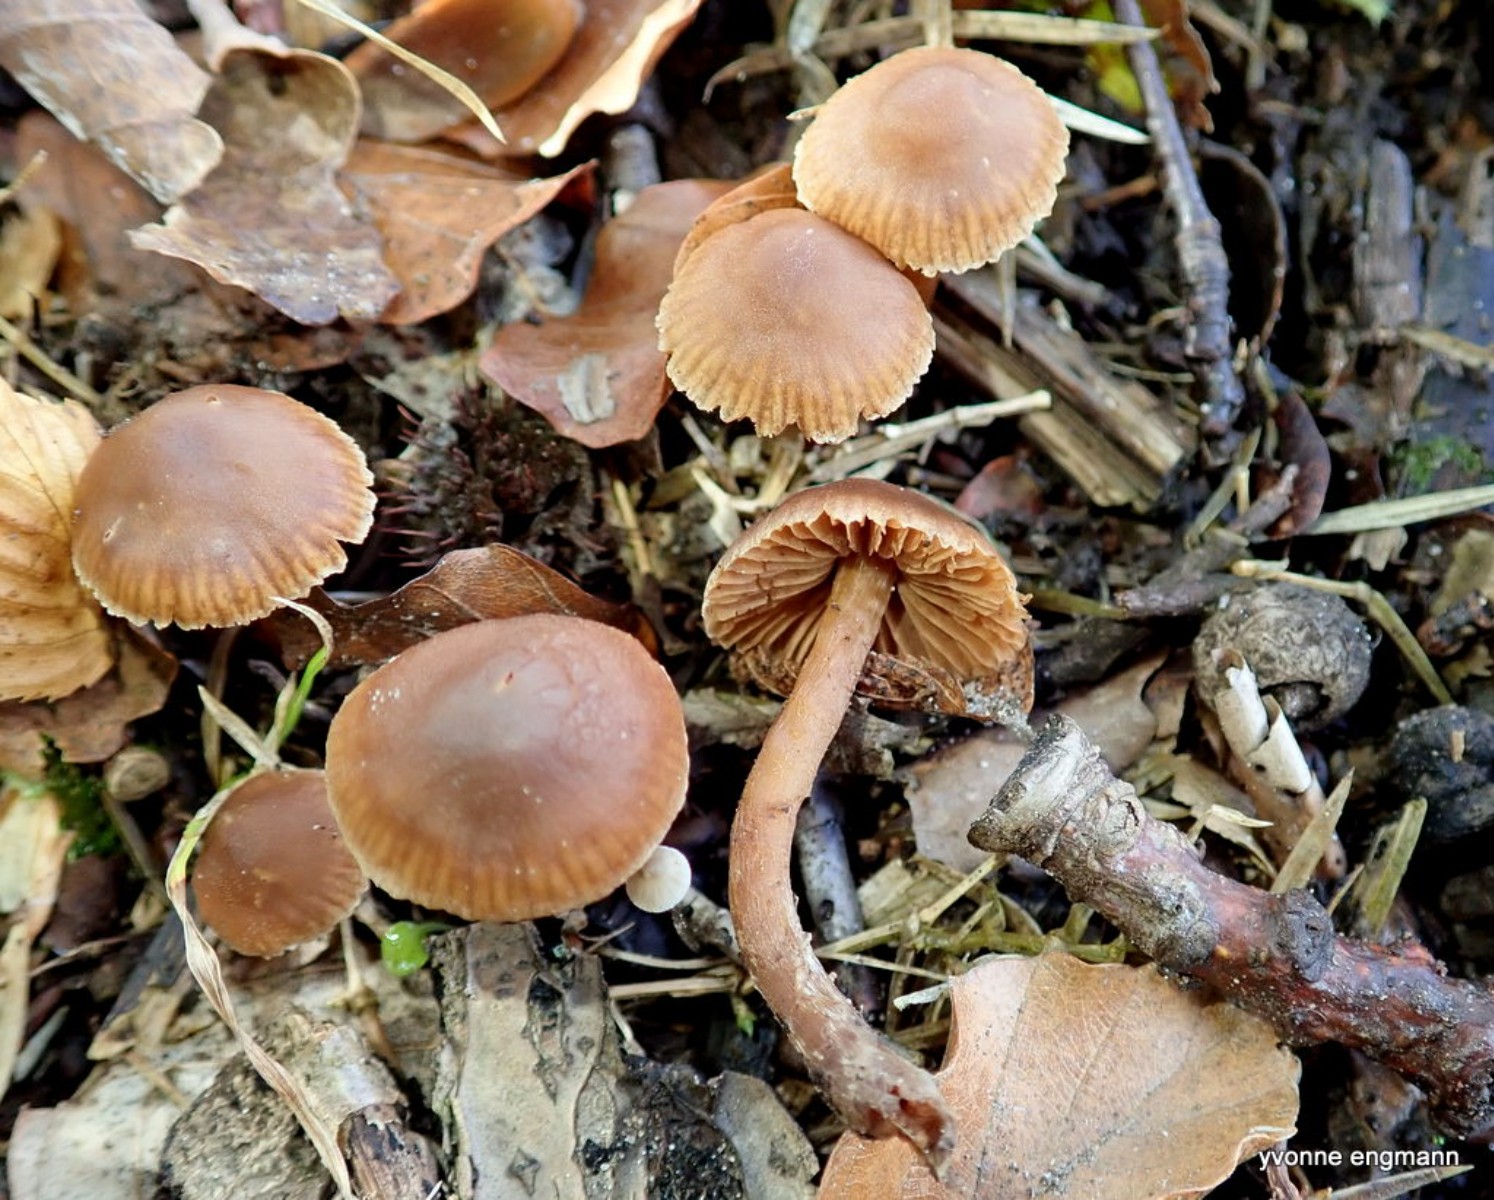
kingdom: Fungi
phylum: Basidiomycota
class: Agaricomycetes
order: Agaricales
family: Cortinariaceae
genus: Cortinarius
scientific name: Cortinarius
